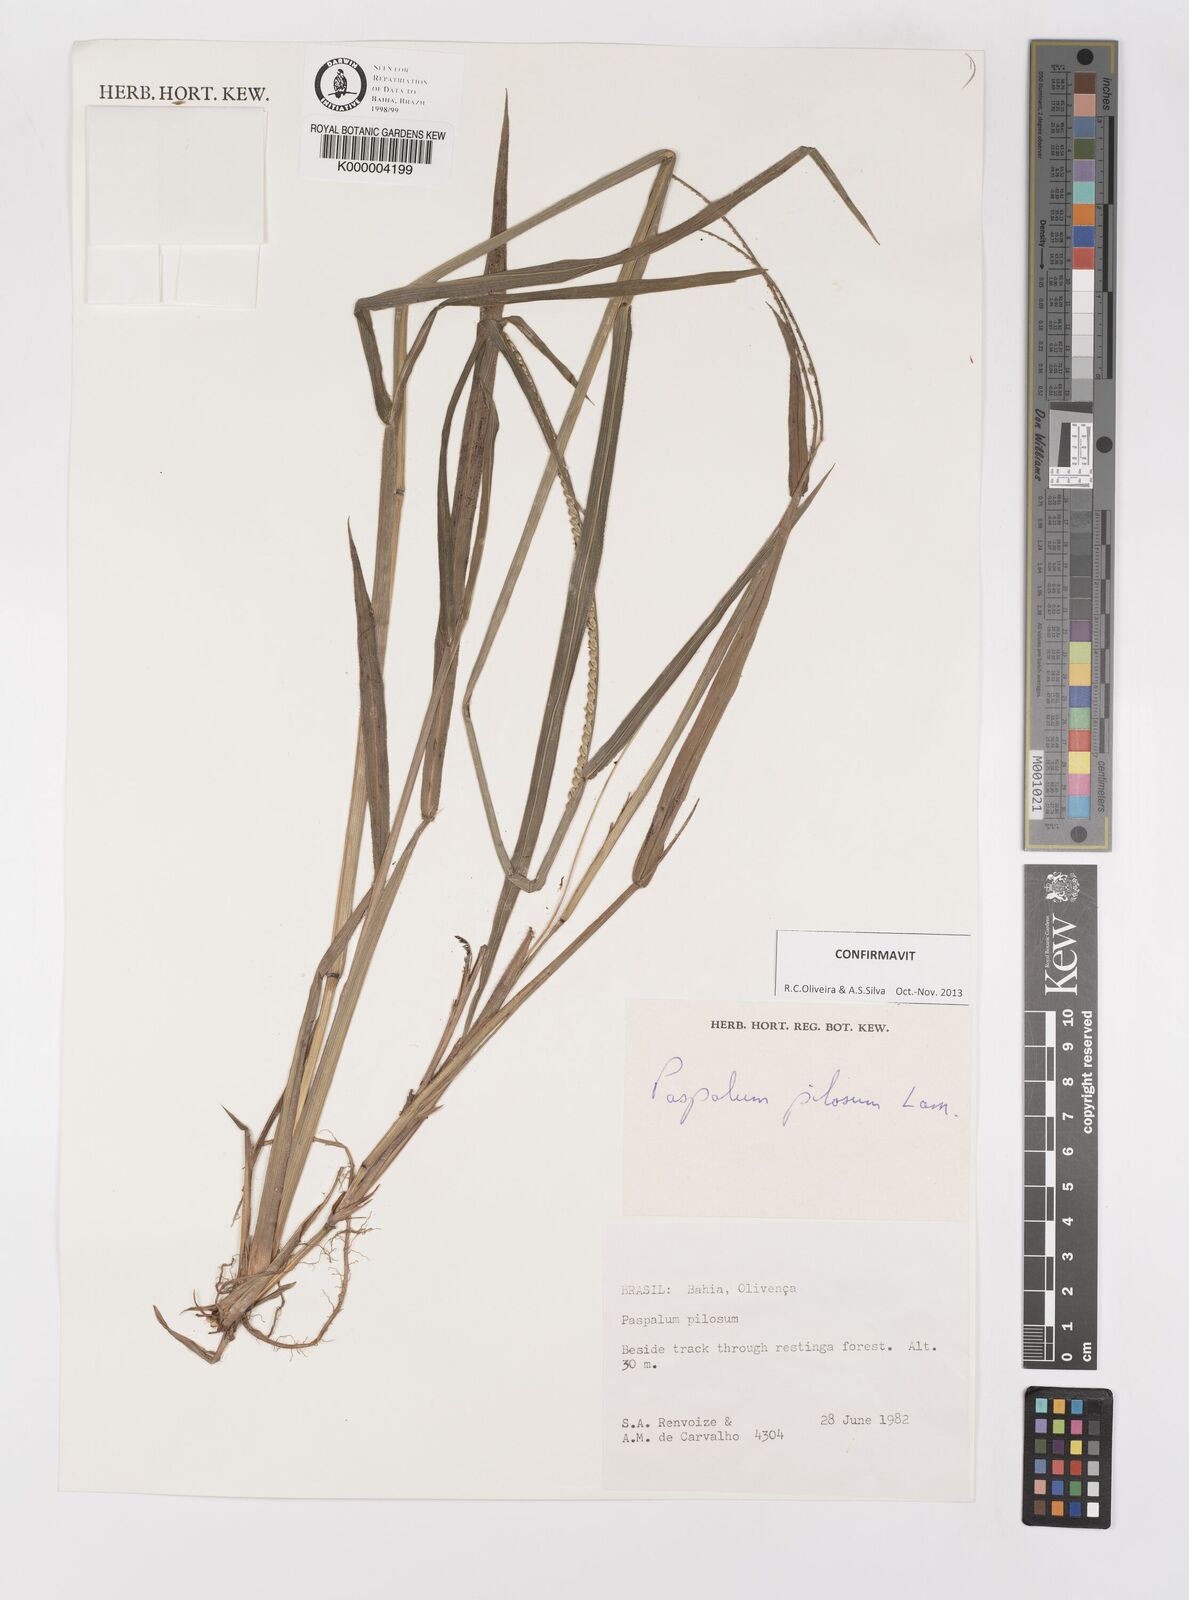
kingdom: Plantae
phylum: Tracheophyta
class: Liliopsida
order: Poales
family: Poaceae
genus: Paspalum
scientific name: Paspalum pilosum
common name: Crowngrass
